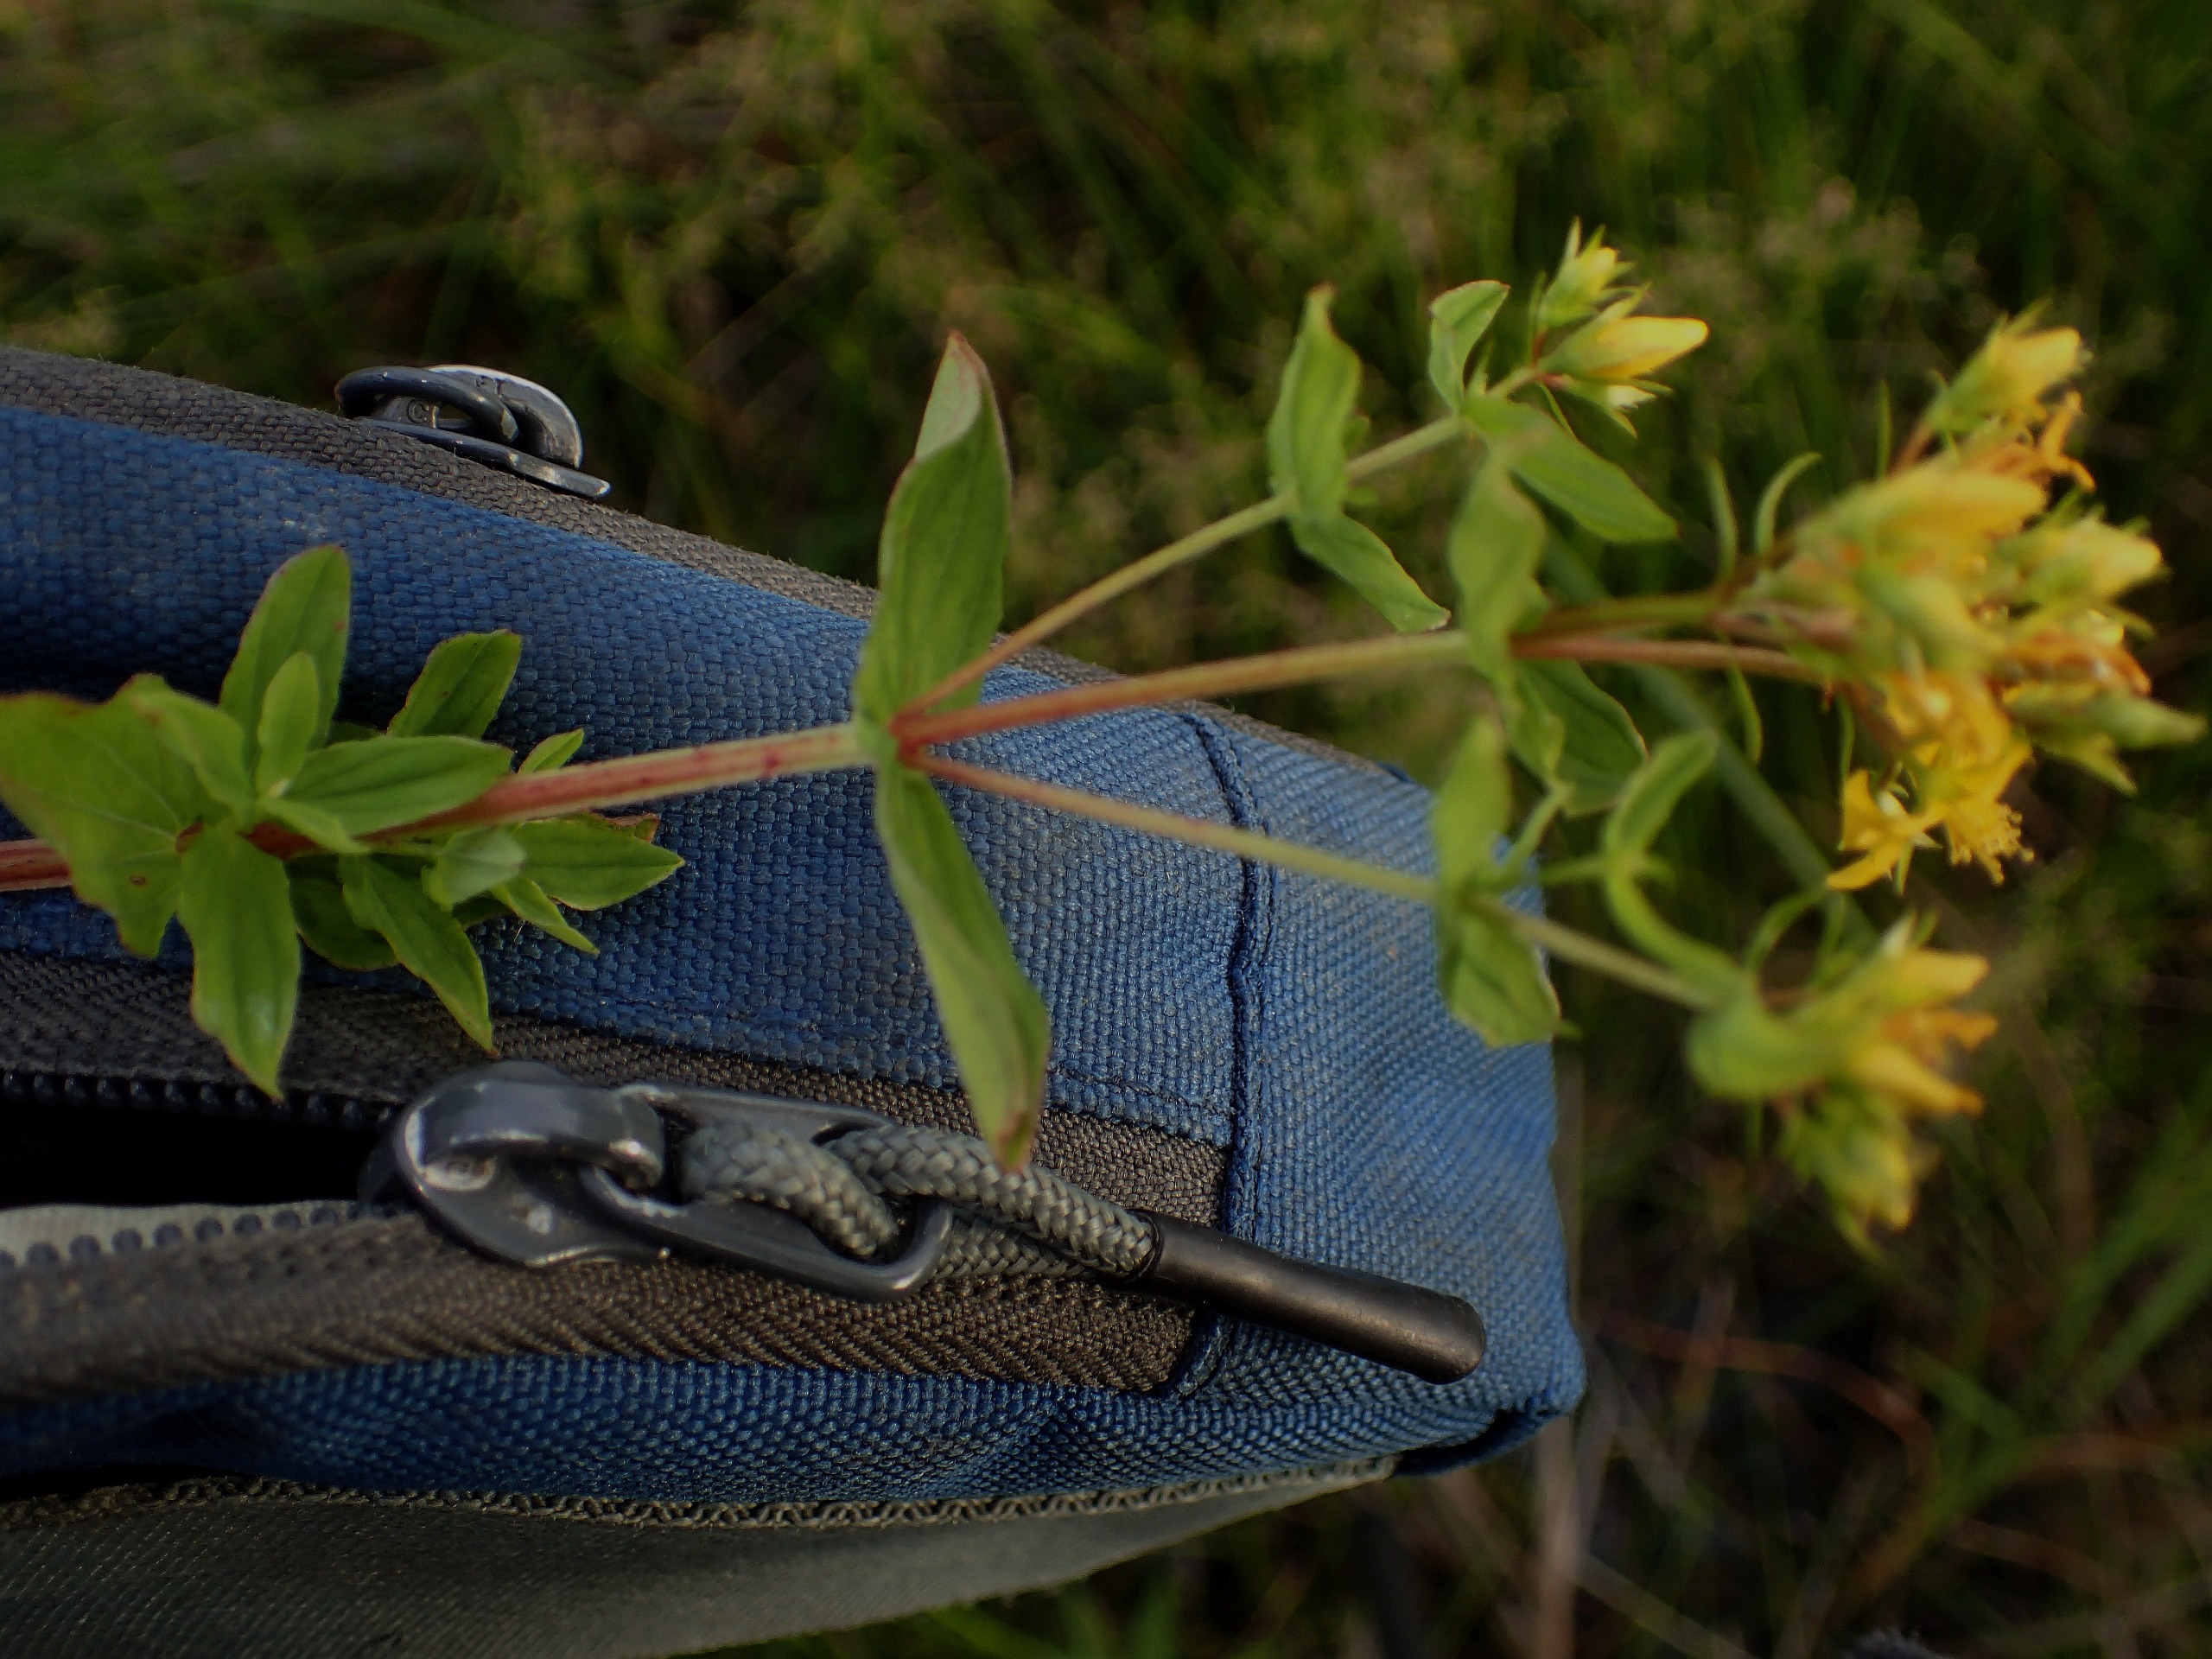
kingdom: Plantae
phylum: Tracheophyta
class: Magnoliopsida
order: Malpighiales
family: Hypericaceae
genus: Hypericum
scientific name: Hypericum tetrapterum
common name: Vinget perikon
